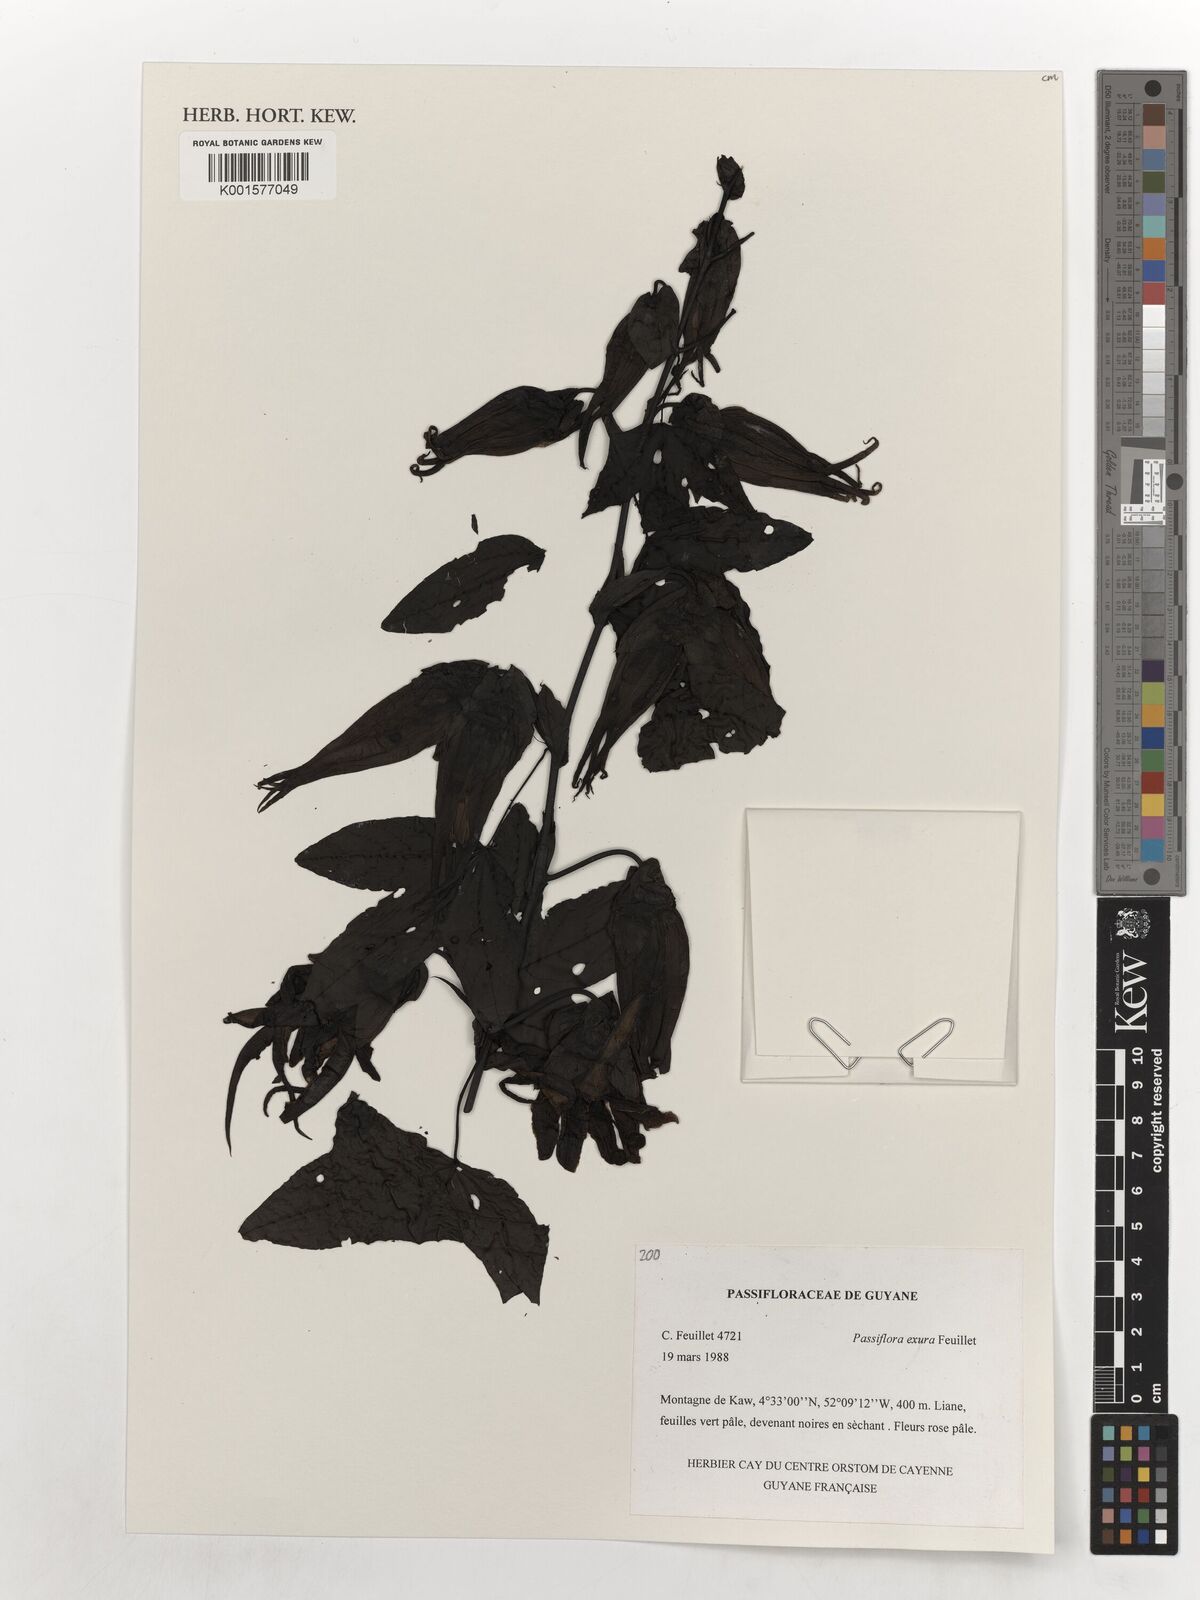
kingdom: Plantae
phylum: Tracheophyta
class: Magnoliopsida
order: Malpighiales
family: Passifloraceae
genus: Passiflora
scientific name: Passiflora exura
